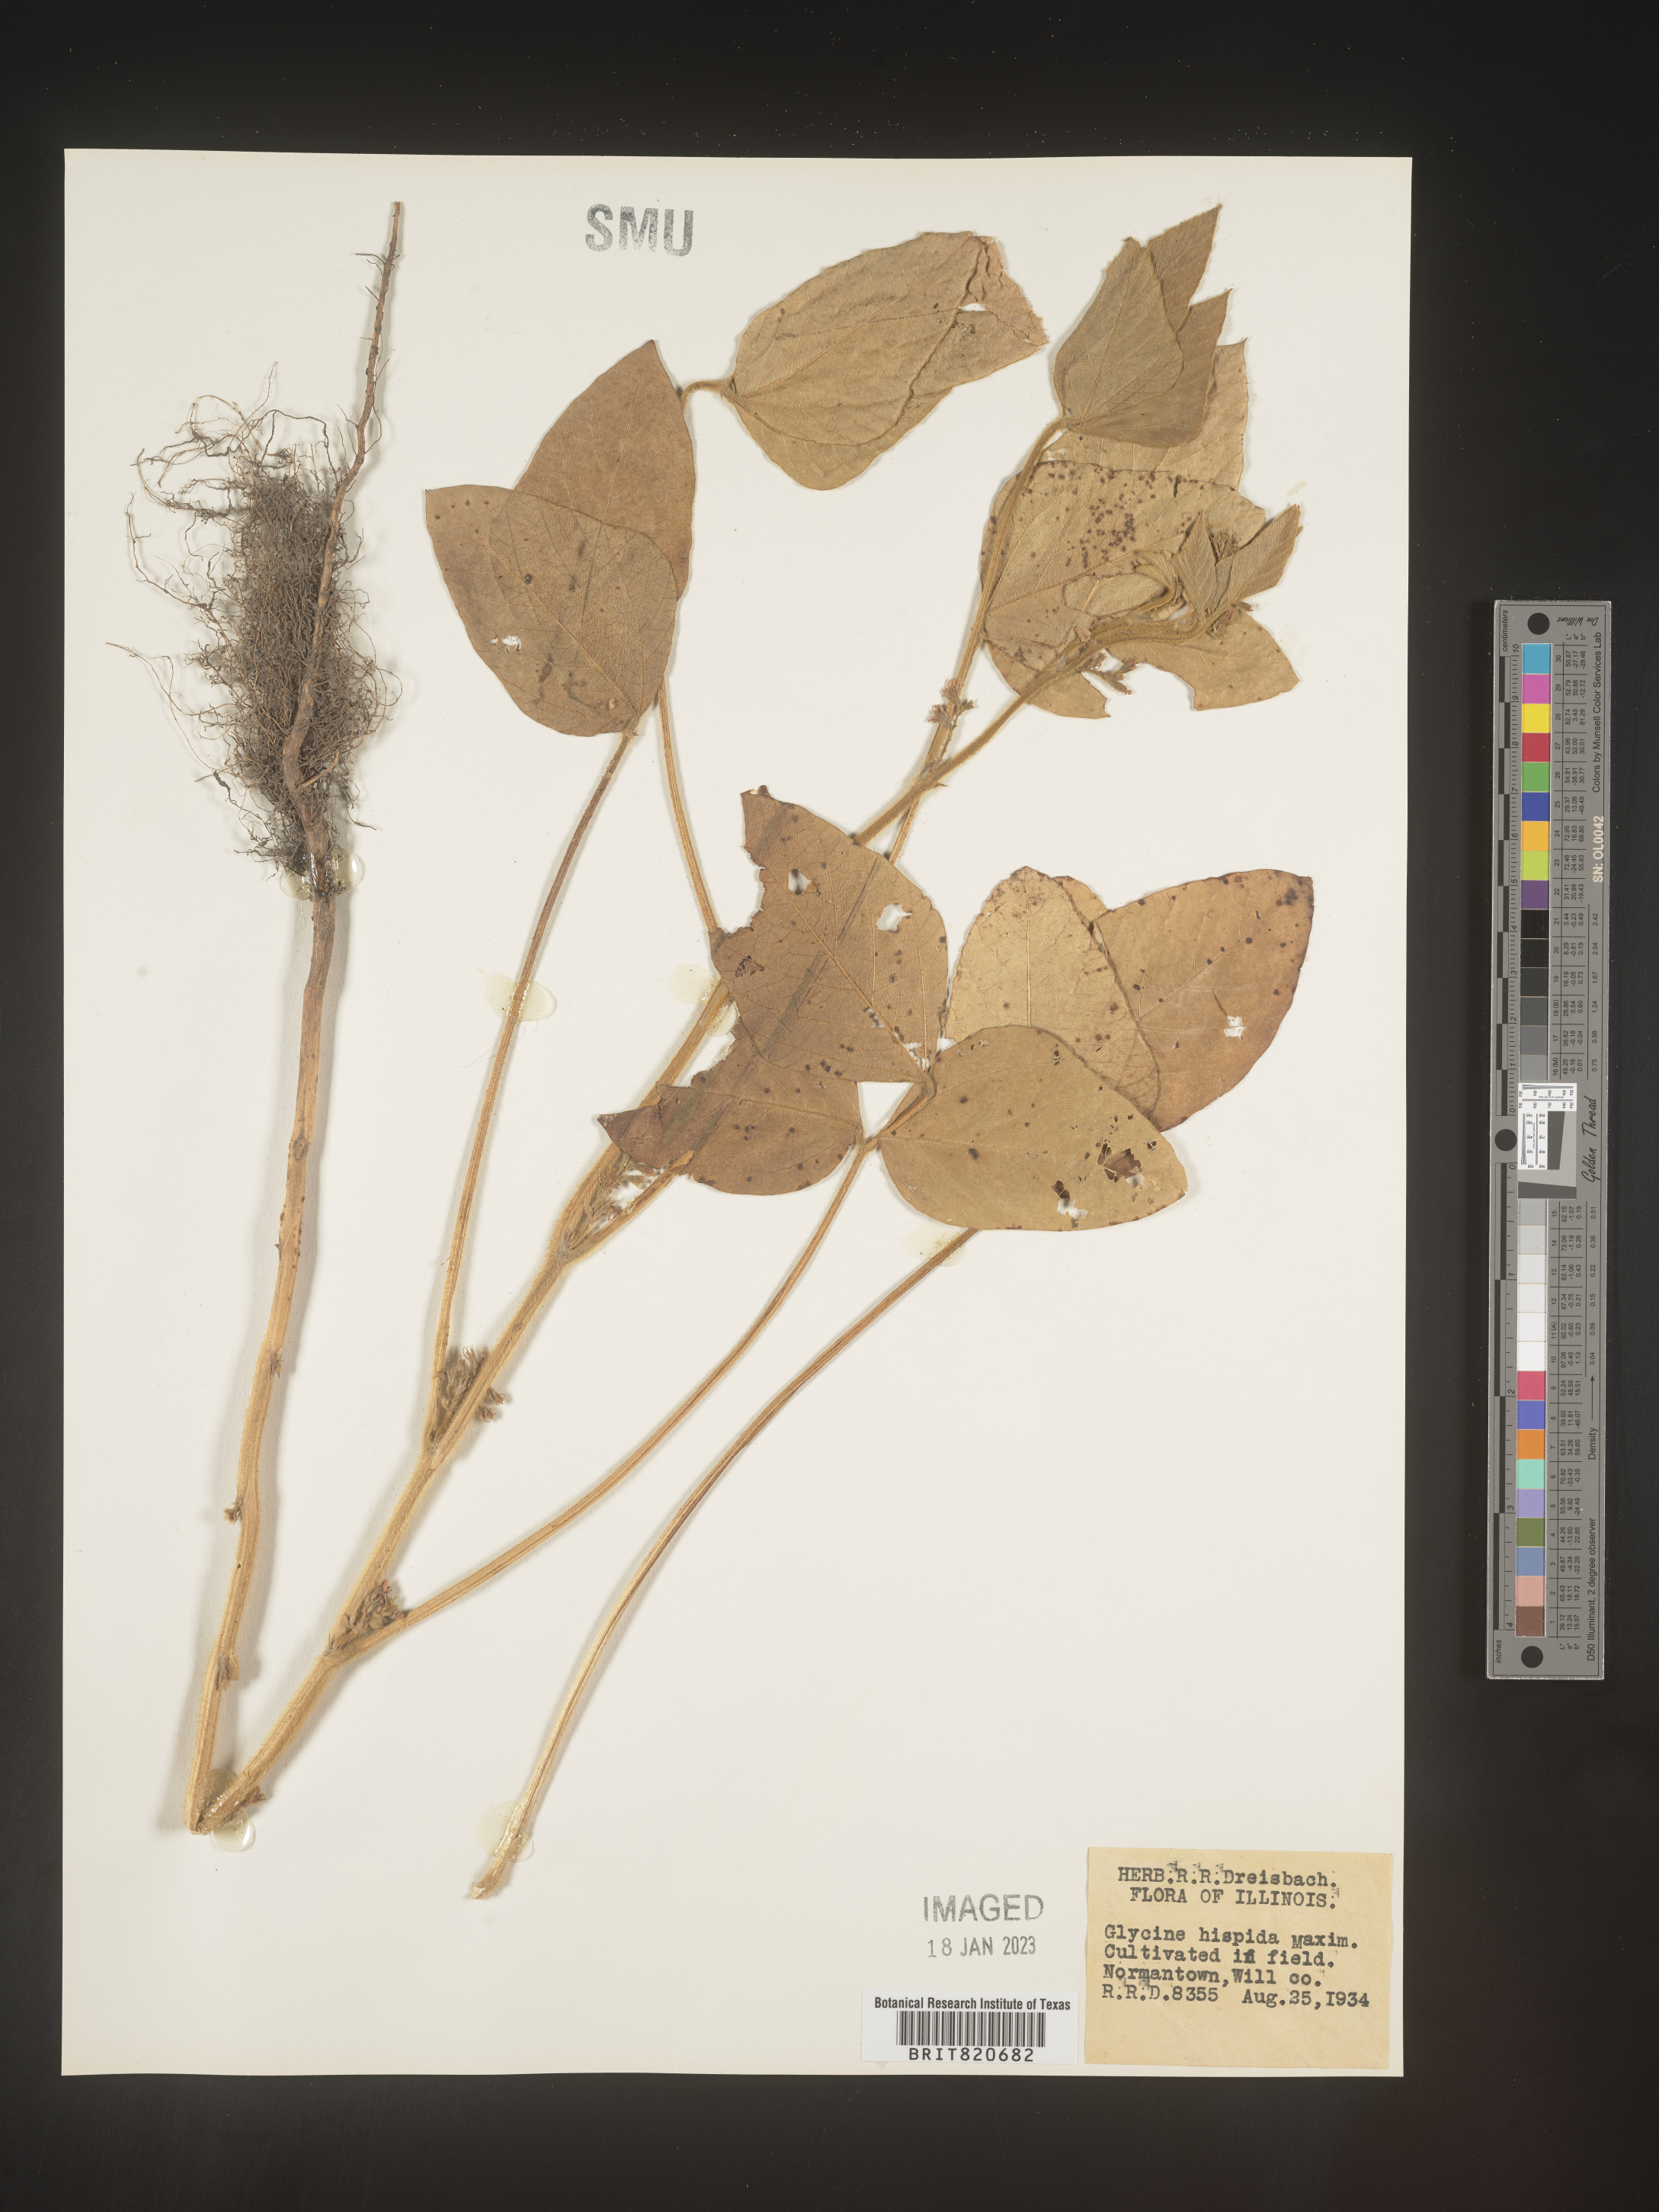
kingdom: Plantae
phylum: Tracheophyta
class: Magnoliopsida
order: Fabales
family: Fabaceae
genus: Glycine
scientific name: Glycine
